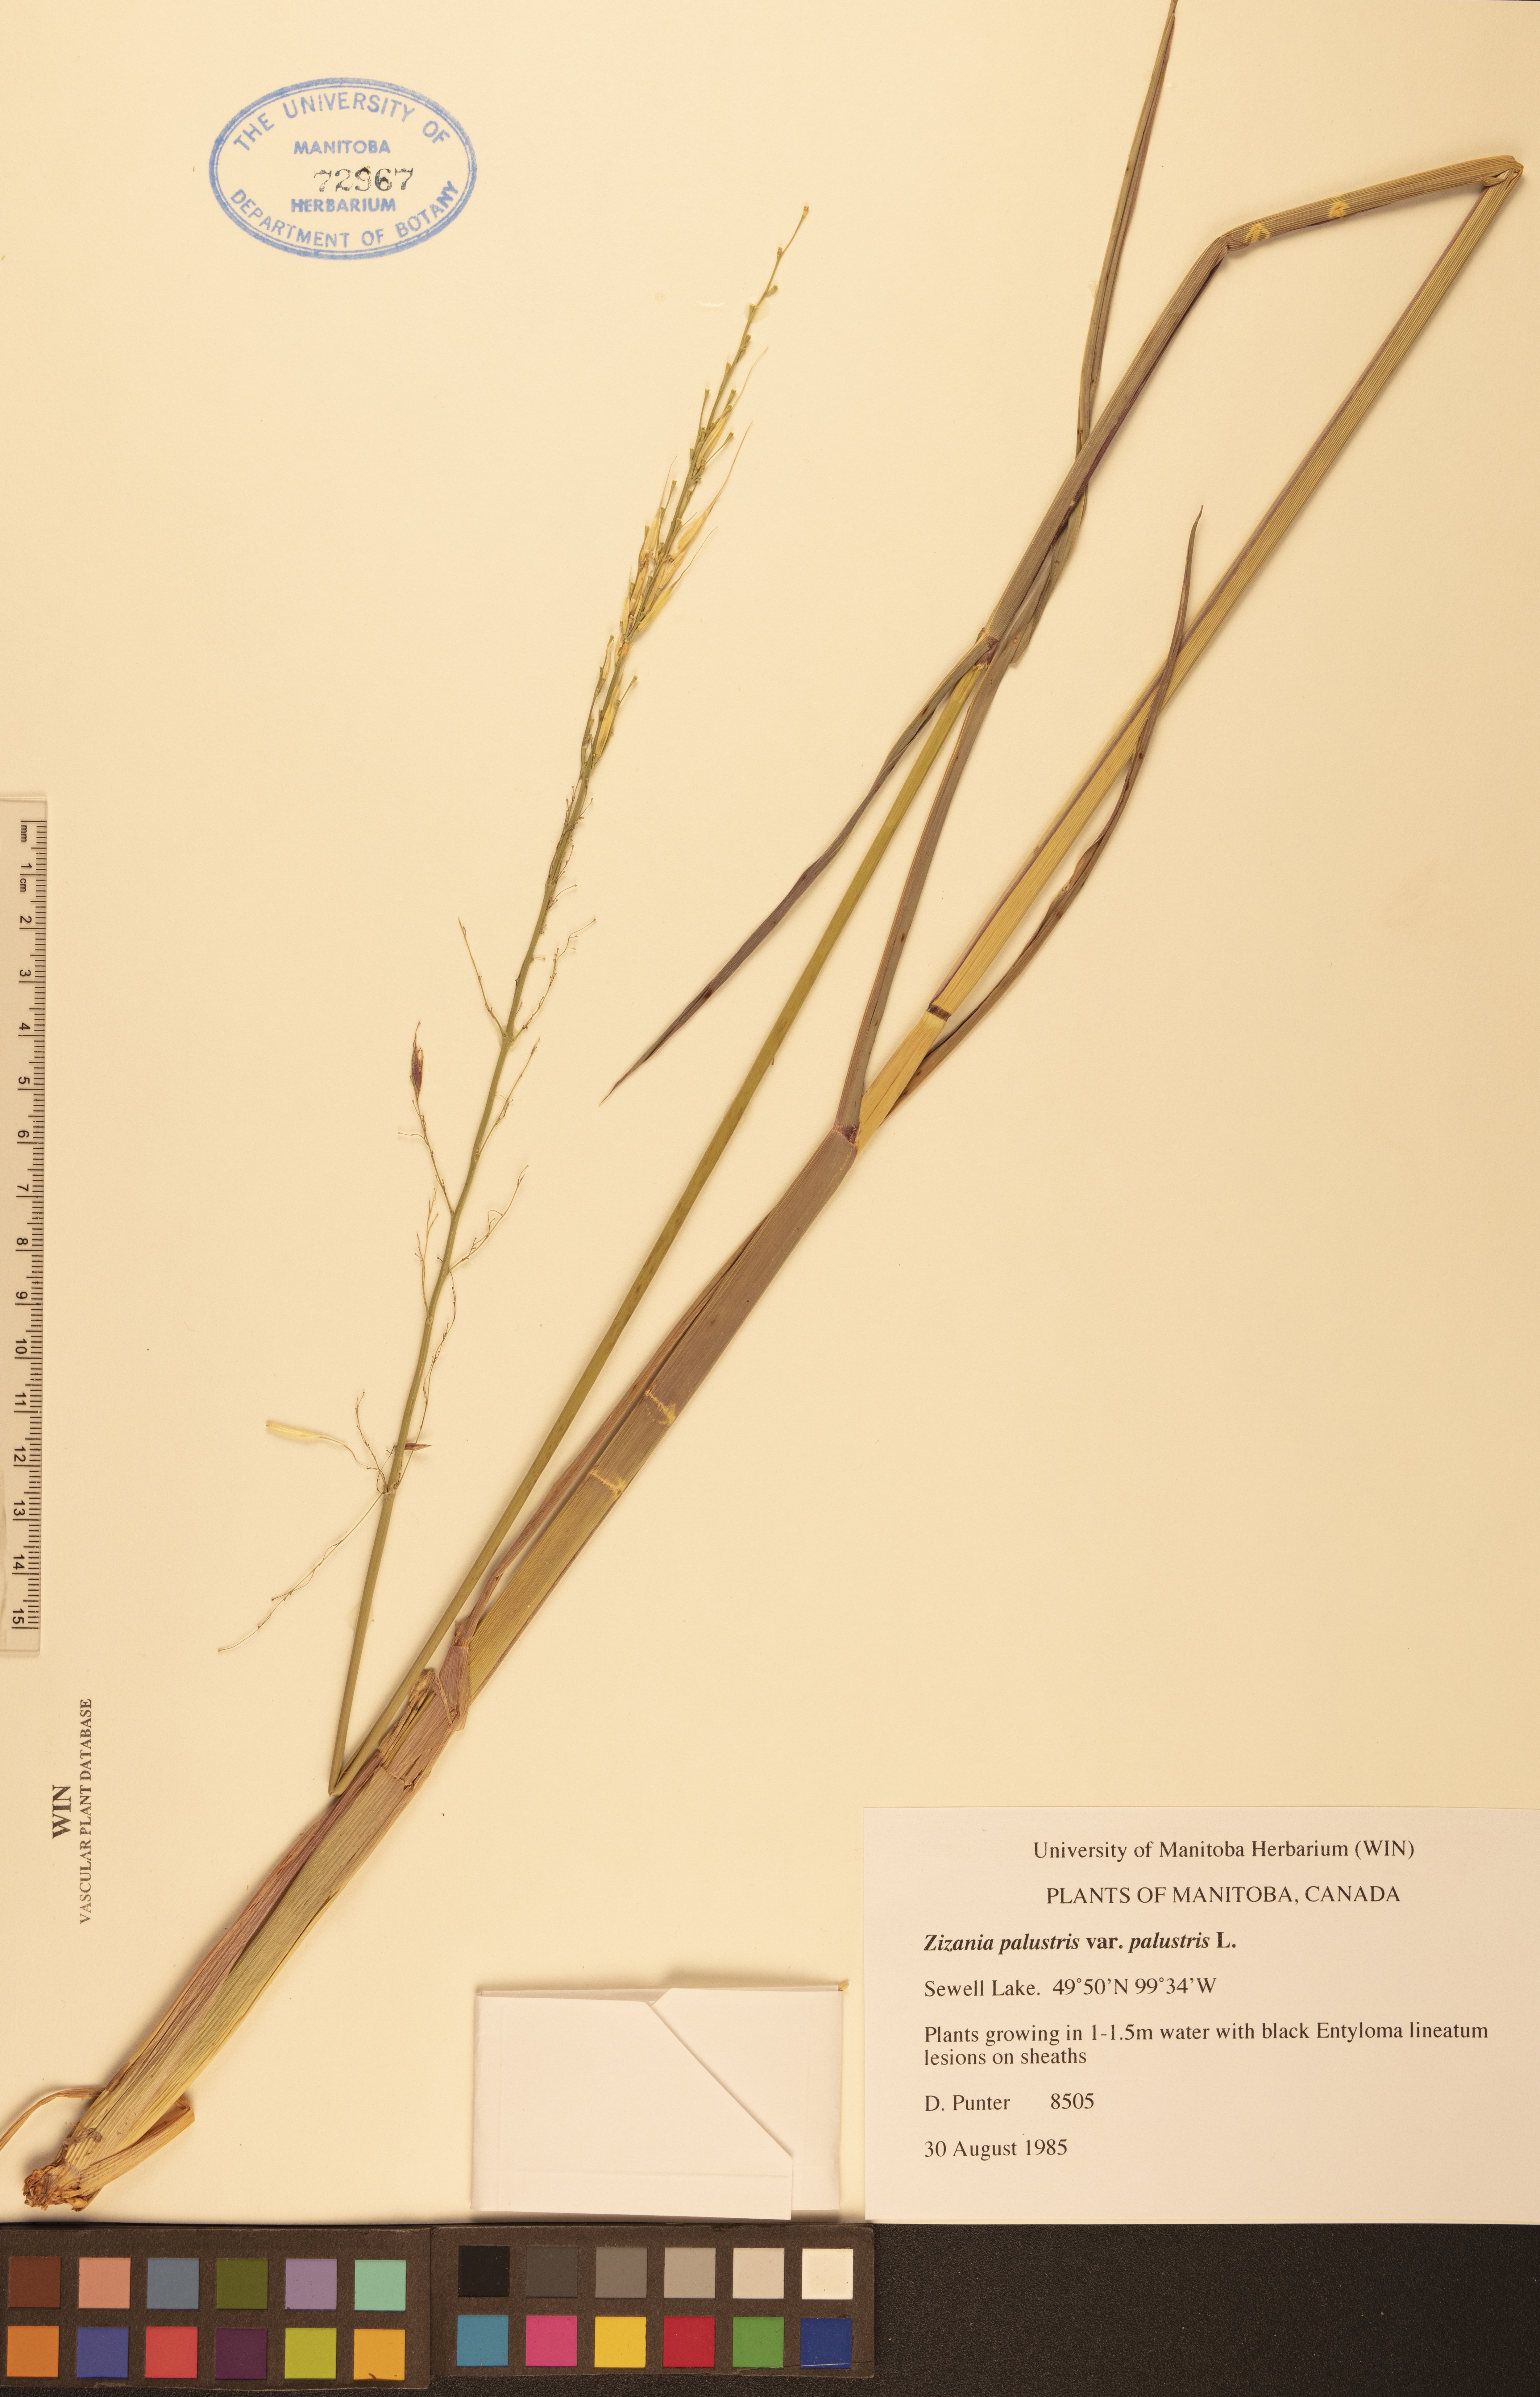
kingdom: Plantae
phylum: Tracheophyta
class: Liliopsida
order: Poales
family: Poaceae
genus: Zizania
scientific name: Zizania palustris
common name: Northern wild rice
